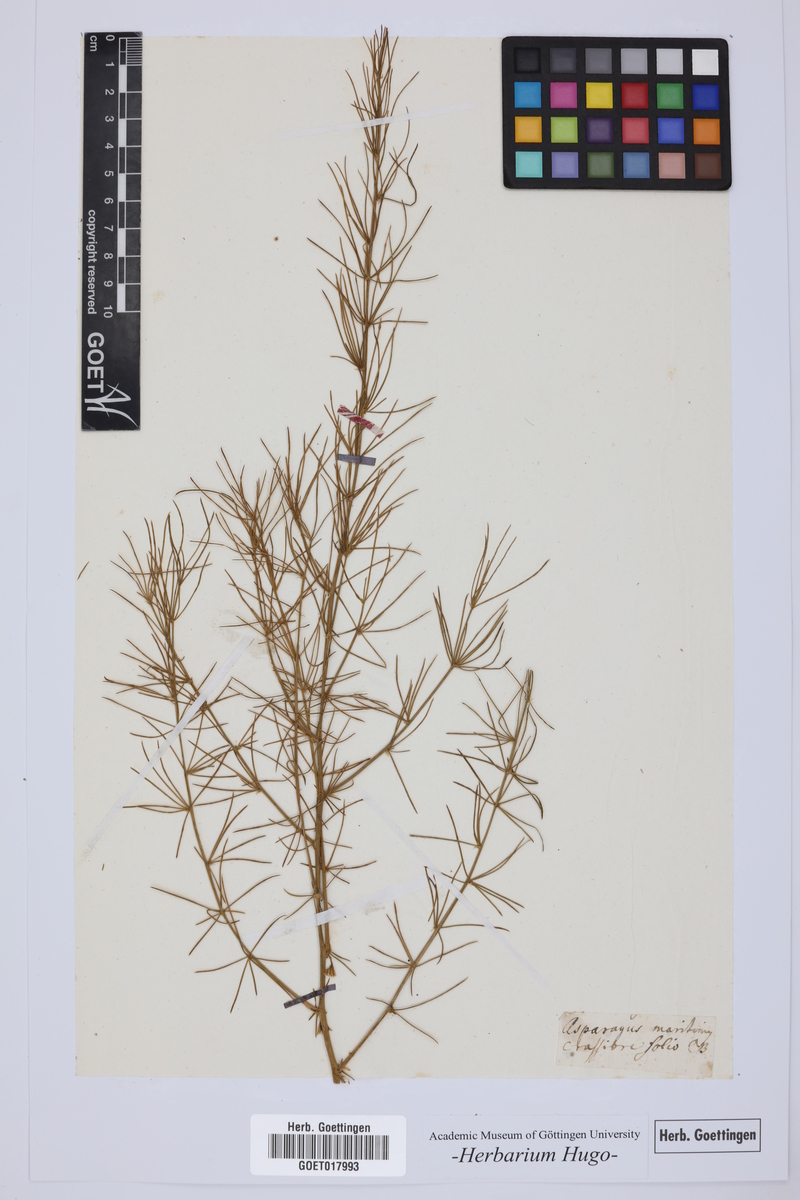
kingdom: Plantae
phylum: Tracheophyta
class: Liliopsida
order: Asparagales
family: Asparagaceae
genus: Asparagus
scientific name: Asparagus maritimus
